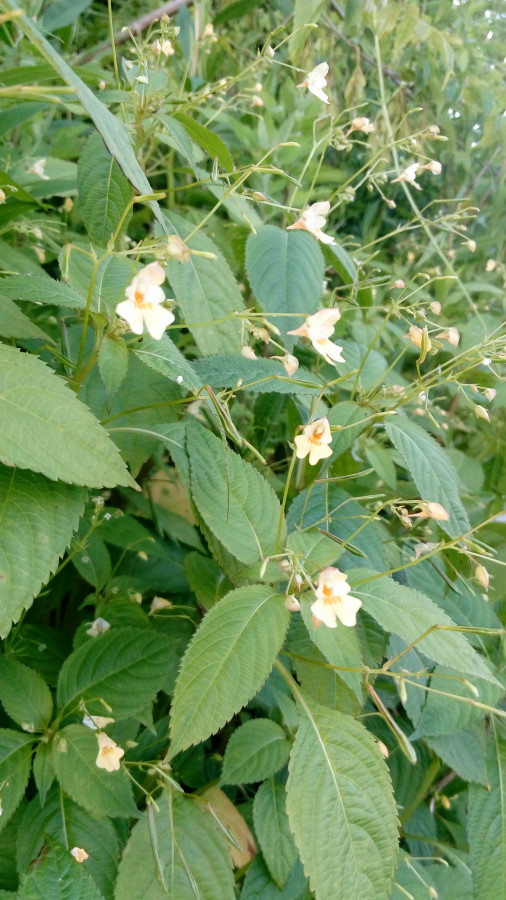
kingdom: Plantae
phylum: Tracheophyta
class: Magnoliopsida
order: Ericales
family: Balsaminaceae
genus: Impatiens
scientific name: Impatiens parviflora
